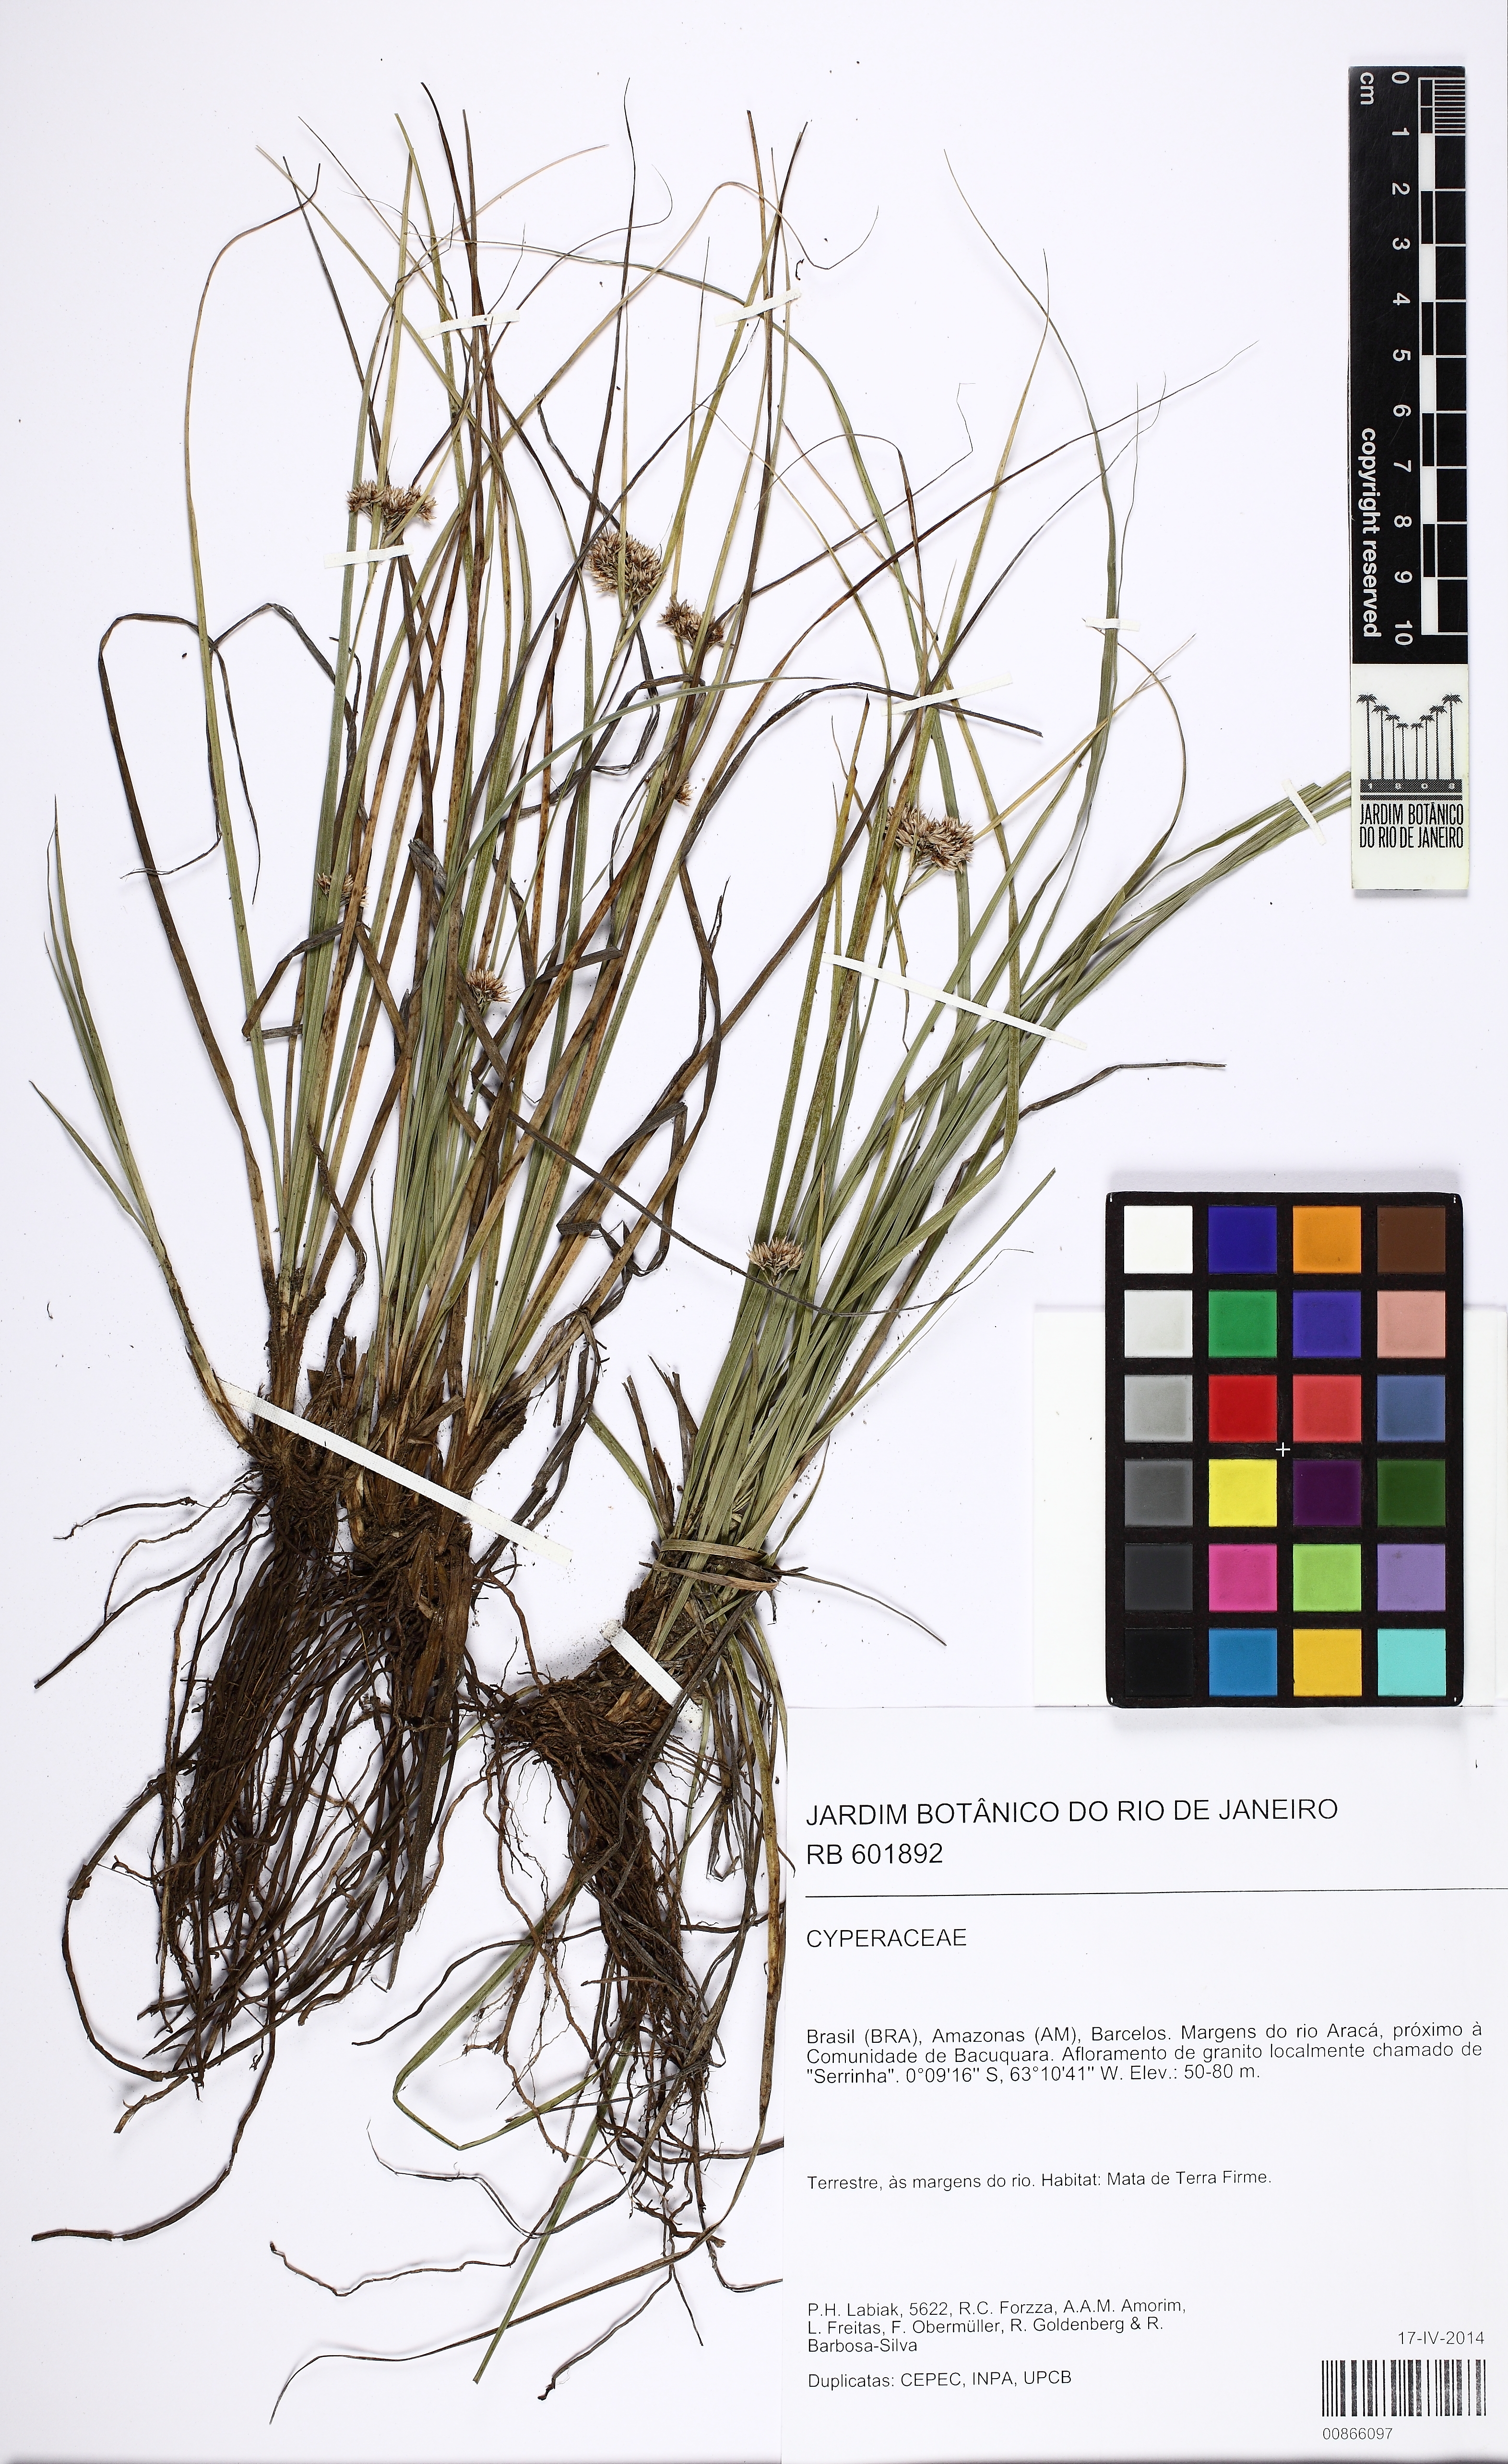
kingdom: Plantae
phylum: Tracheophyta
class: Liliopsida
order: Poales
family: Cyperaceae
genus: Rhynchospora
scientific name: Rhynchospora
